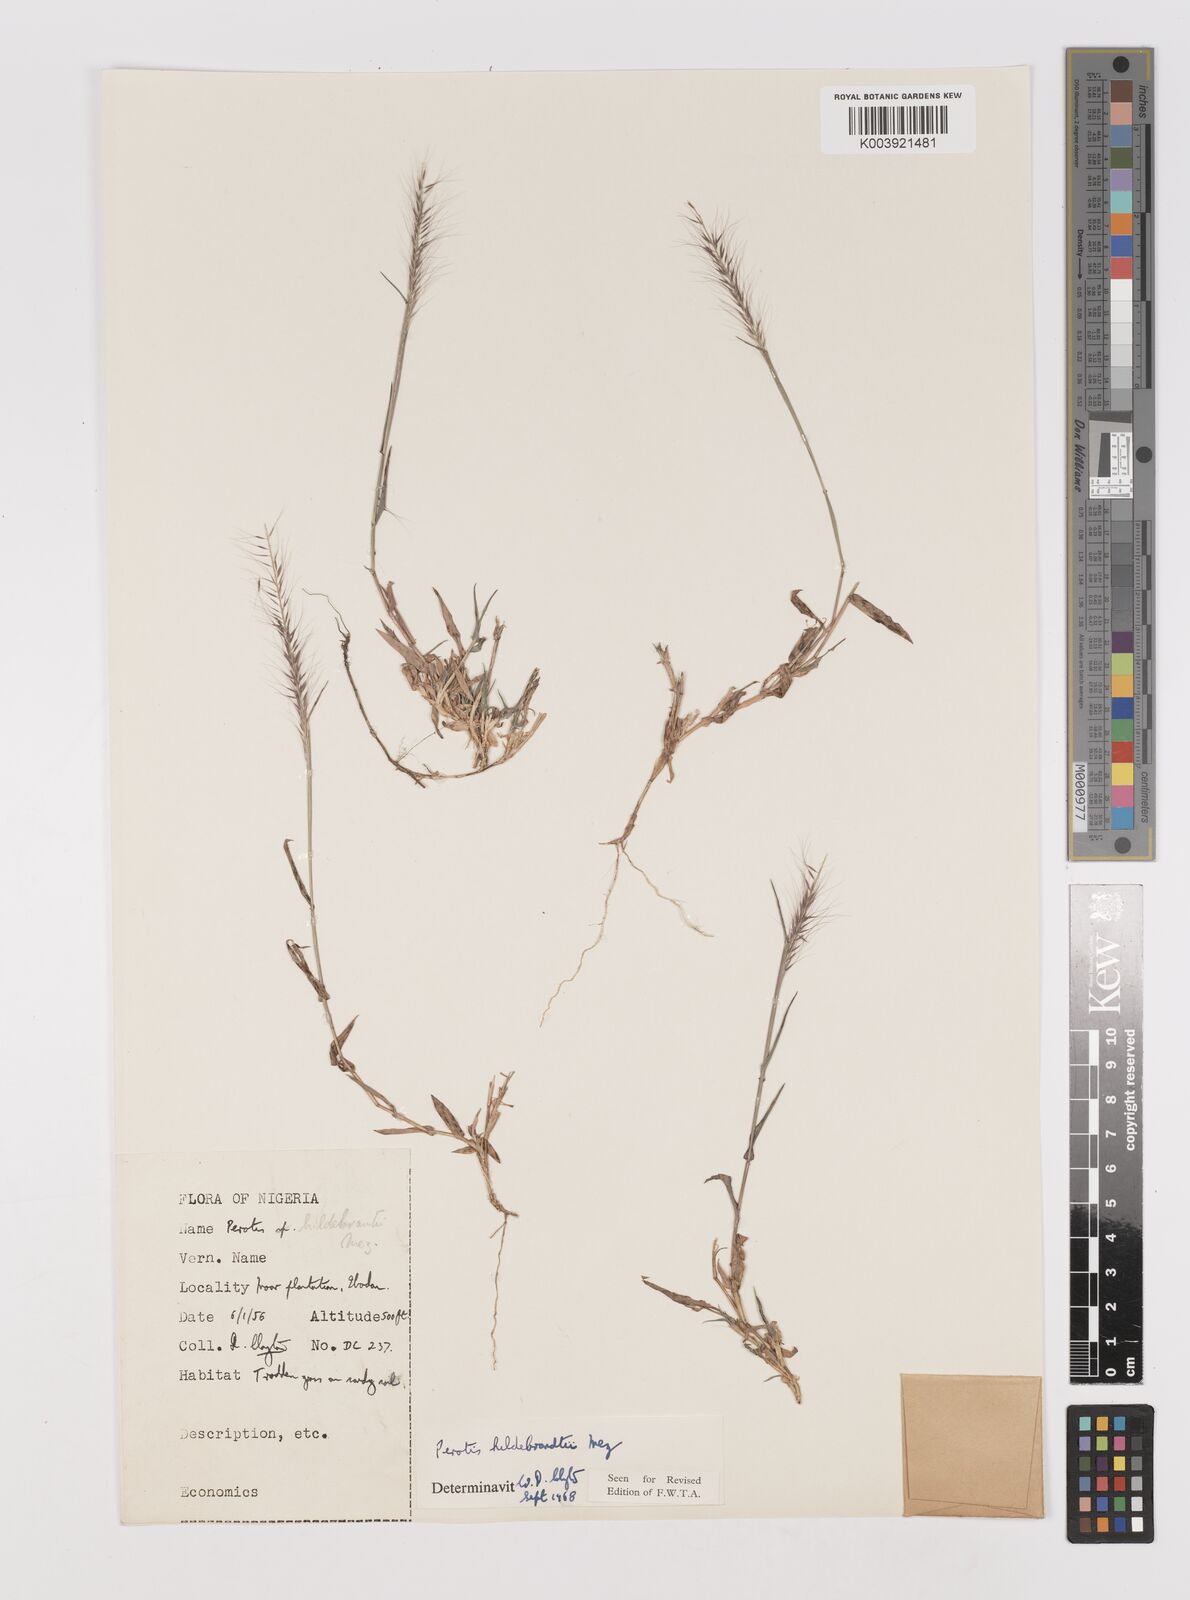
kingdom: Plantae
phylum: Tracheophyta
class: Liliopsida
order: Poales
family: Poaceae
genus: Perotis
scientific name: Perotis hildebrandtii
